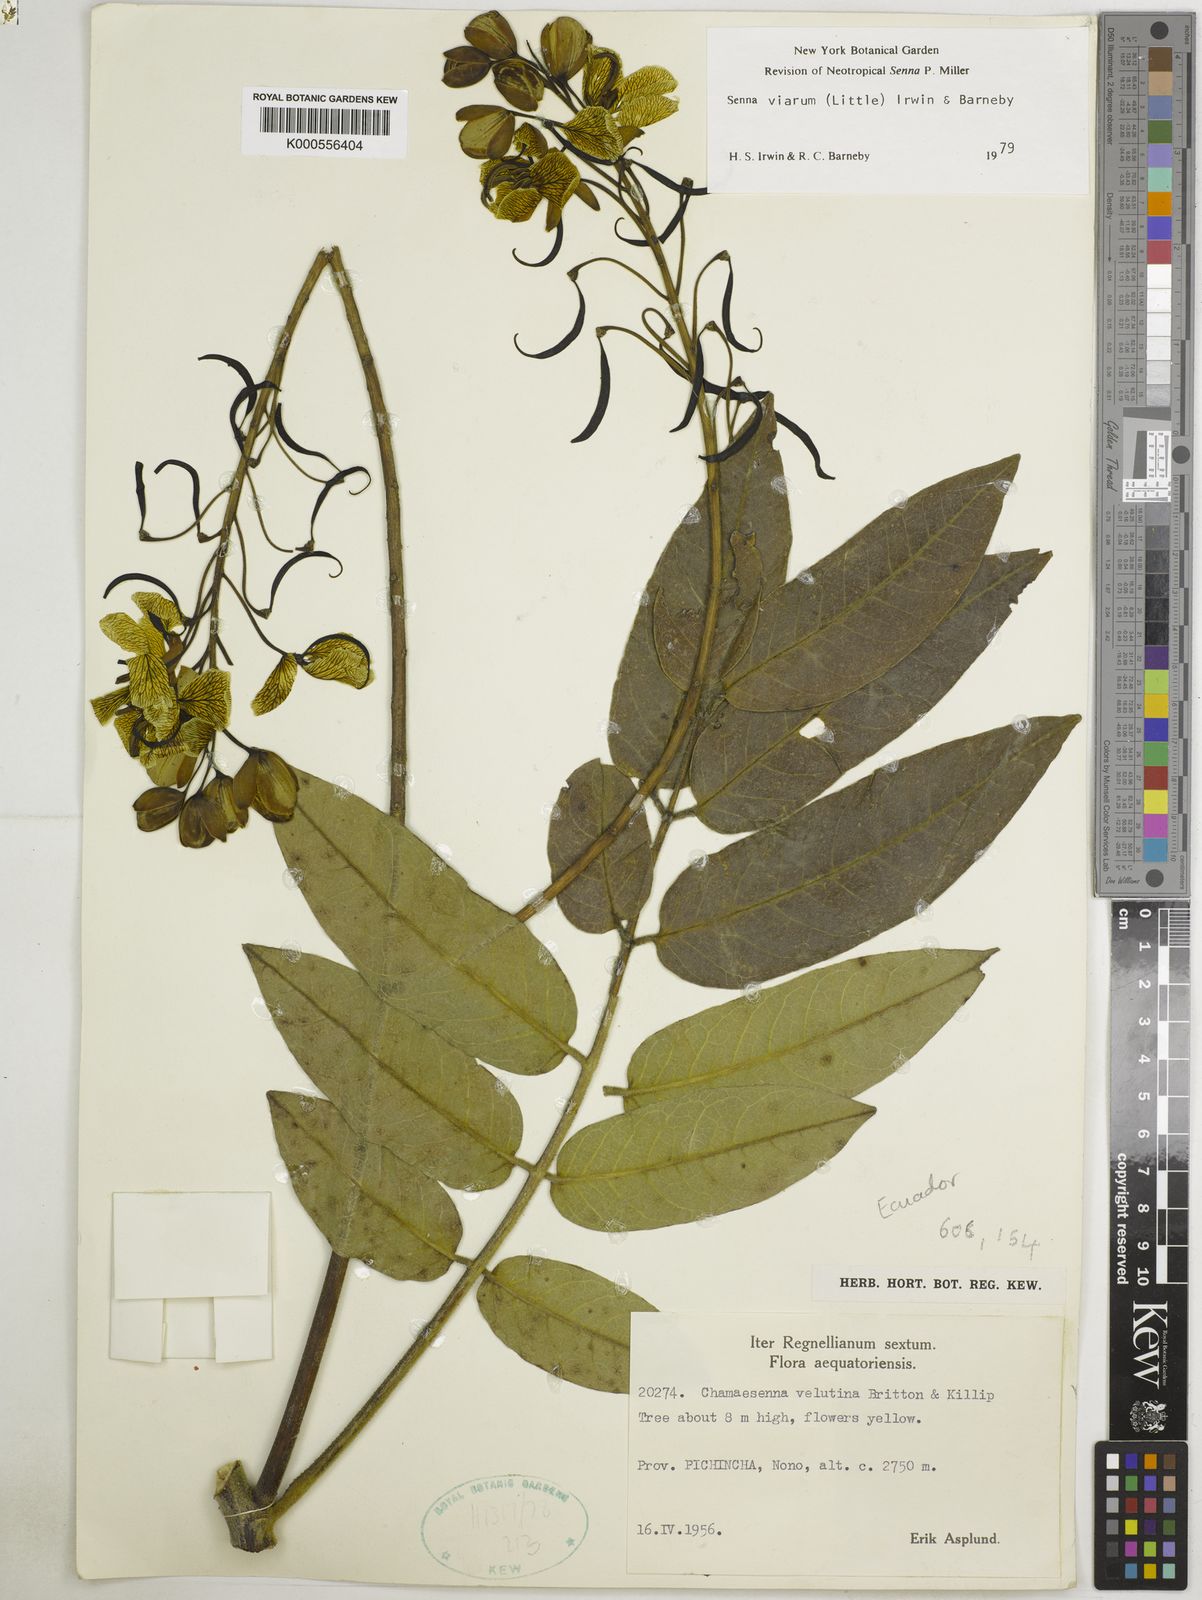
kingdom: Plantae
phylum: Tracheophyta
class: Magnoliopsida
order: Fabales
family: Fabaceae
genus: Senna
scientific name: Senna viarum
